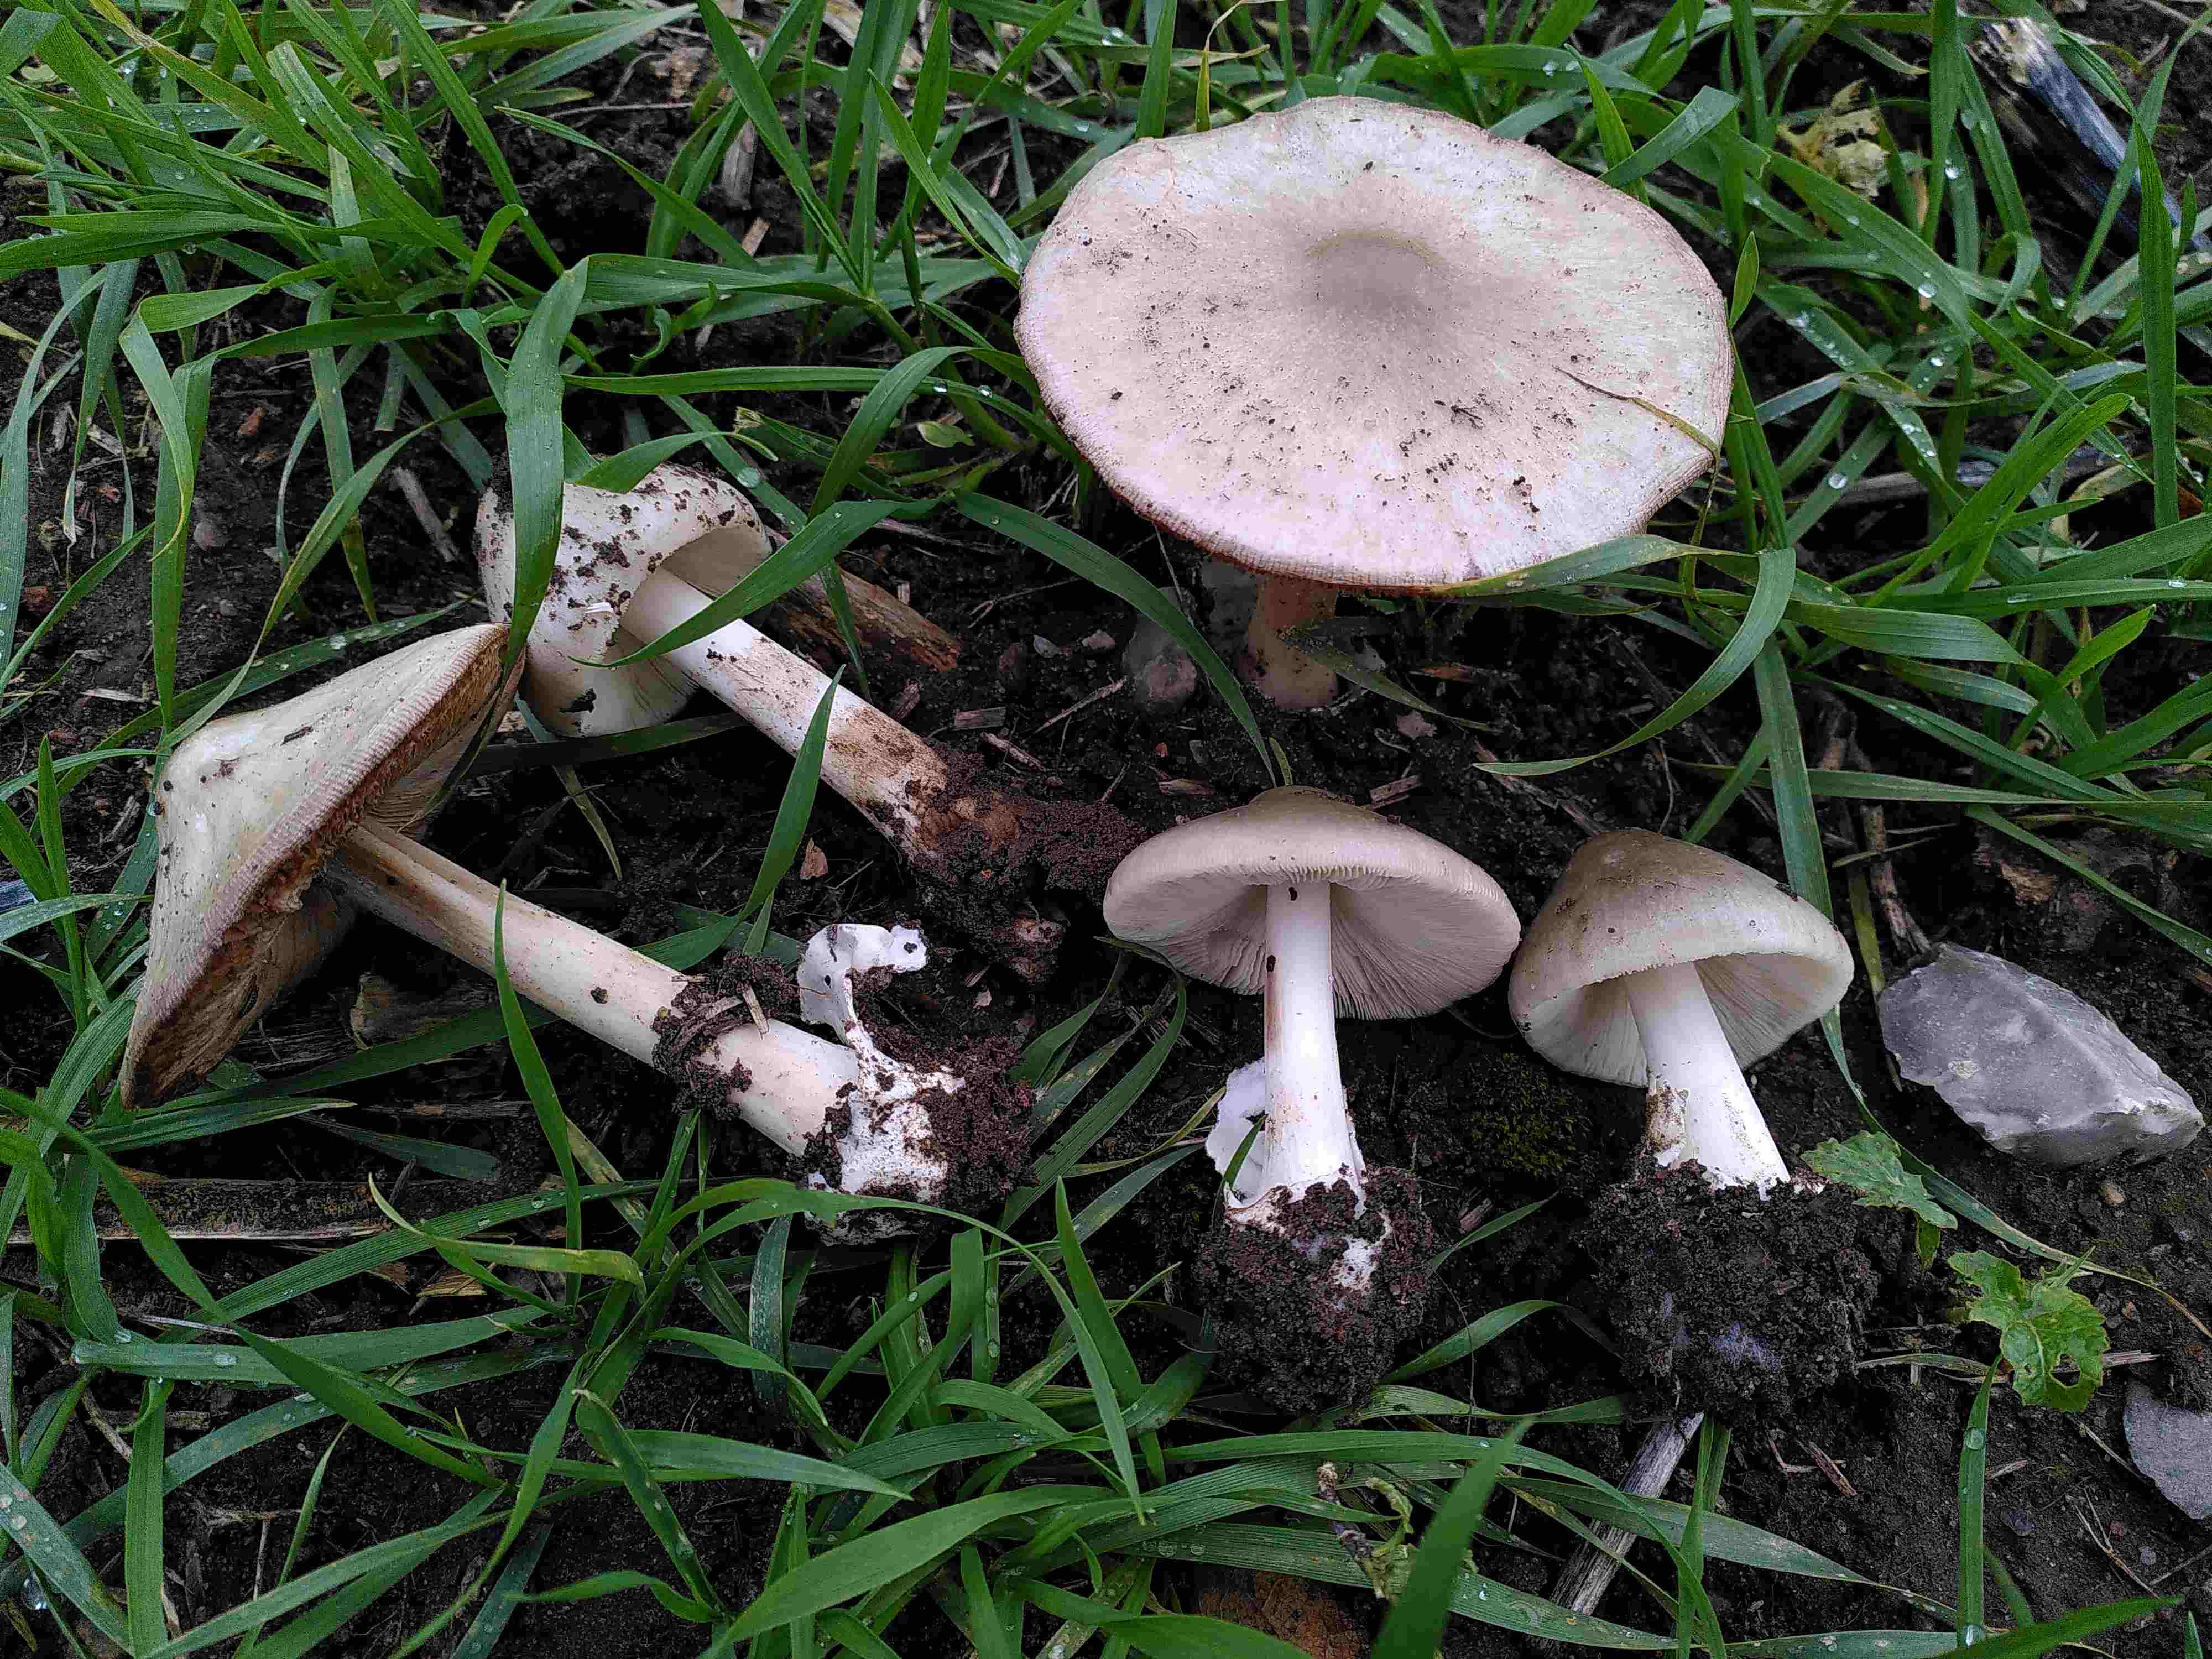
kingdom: Fungi
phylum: Basidiomycota
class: Agaricomycetes
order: Agaricales
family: Pluteaceae
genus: Volvopluteus
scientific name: Volvopluteus gloiocephalus
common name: høj posesvamp
